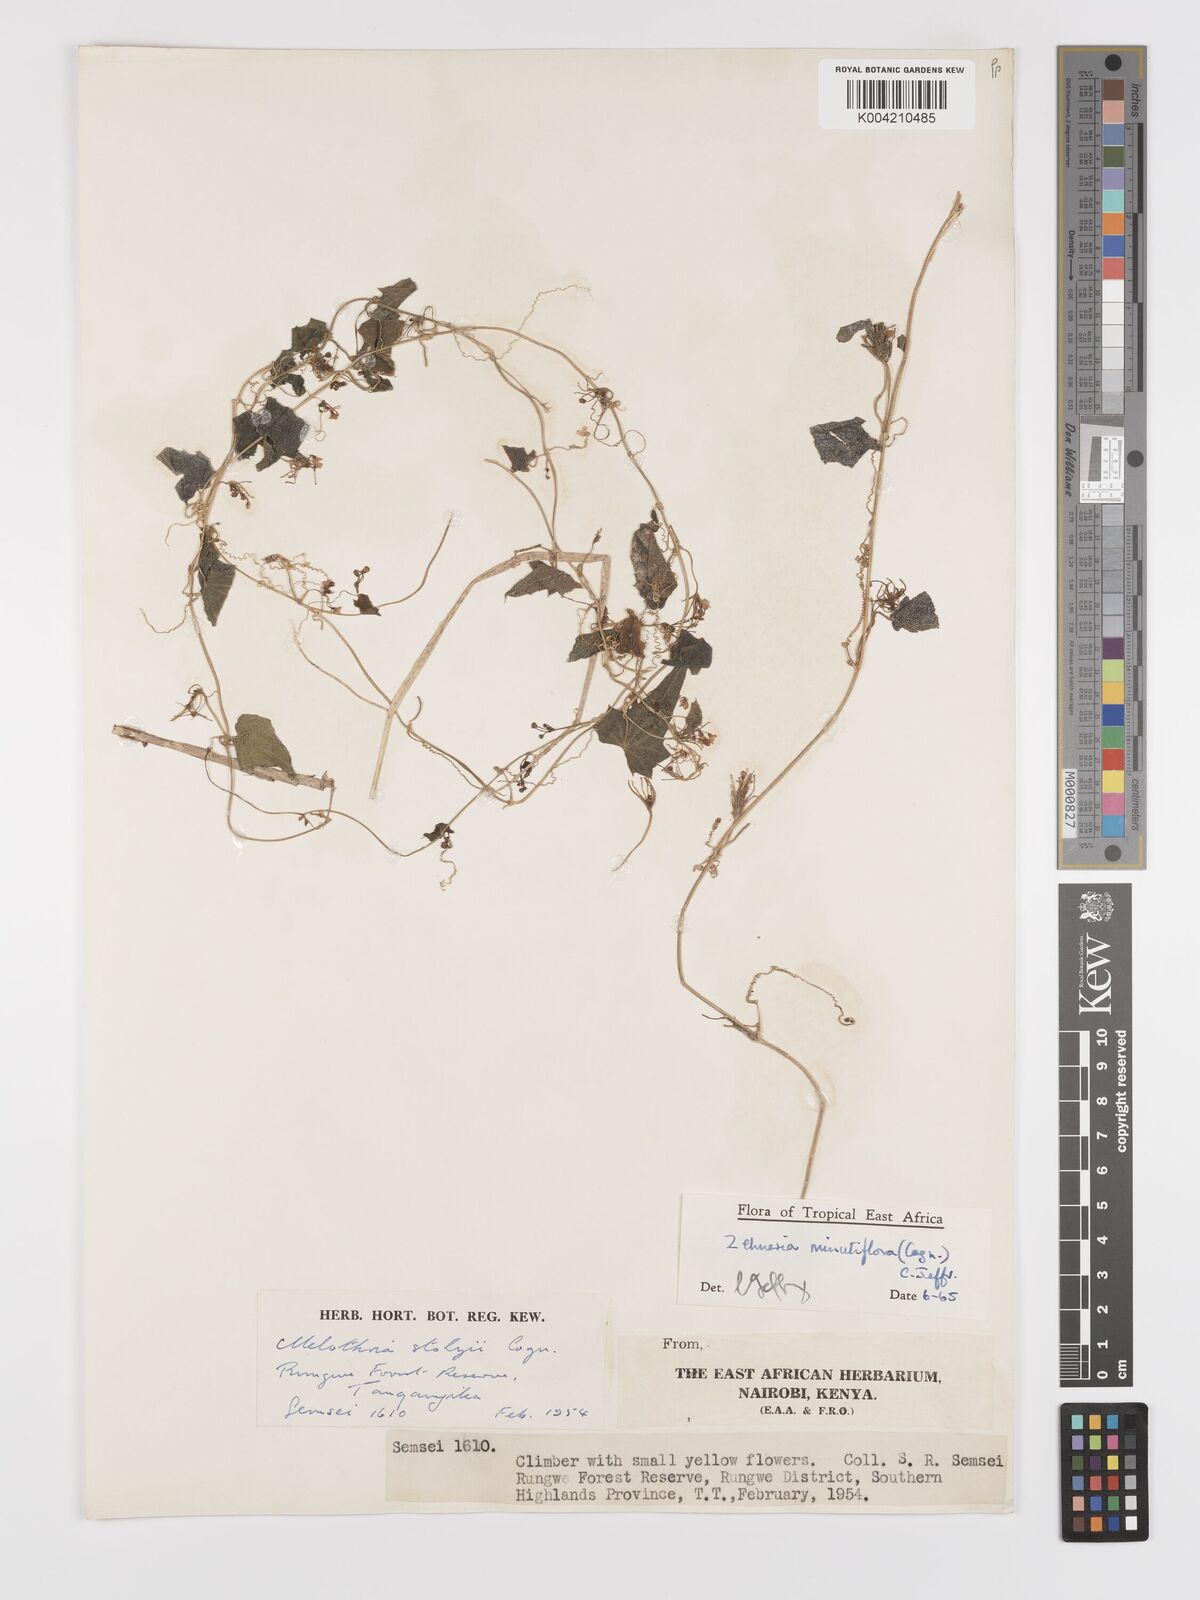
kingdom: Plantae
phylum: Tracheophyta
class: Magnoliopsida
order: Cucurbitales
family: Cucurbitaceae
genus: Zehneria
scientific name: Zehneria minutiflora
